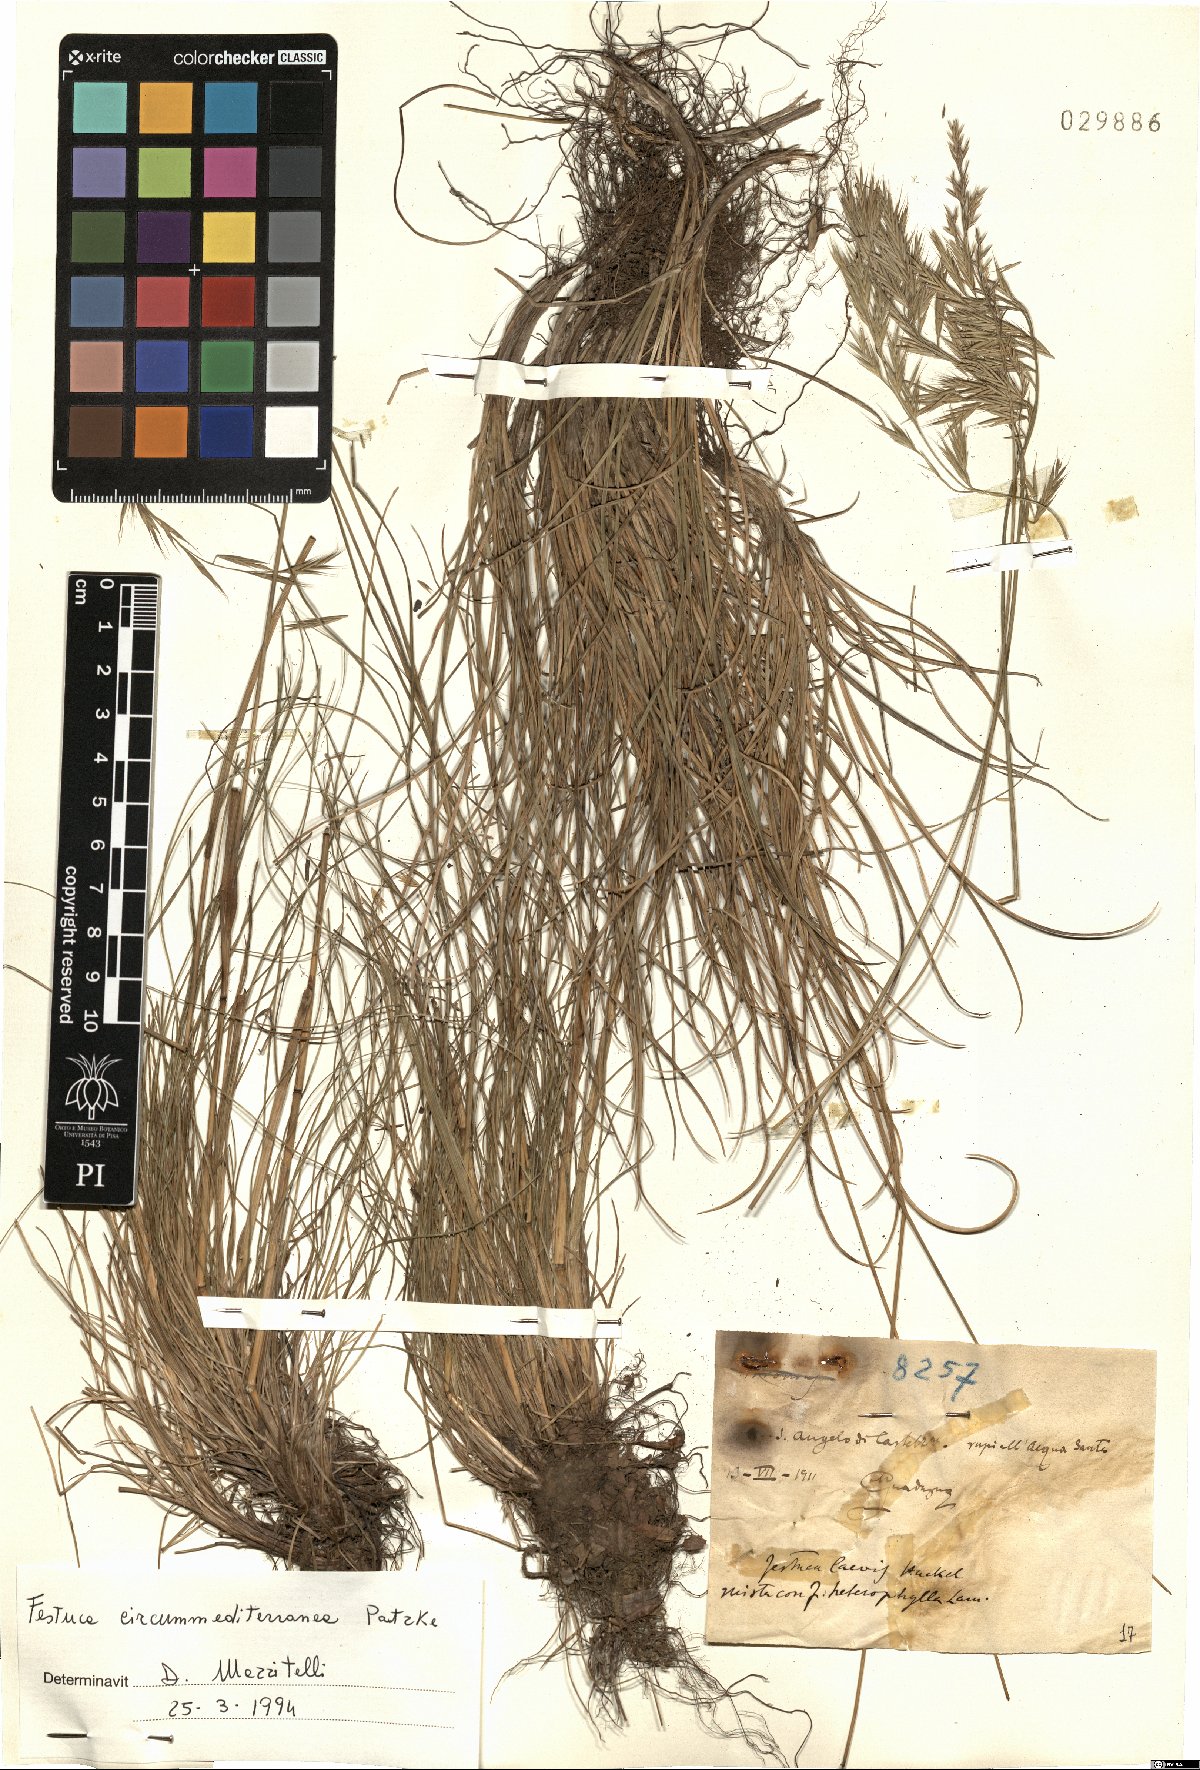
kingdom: Plantae
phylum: Tracheophyta
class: Liliopsida
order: Poales
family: Poaceae
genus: Festuca
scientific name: Festuca circummediterranea
